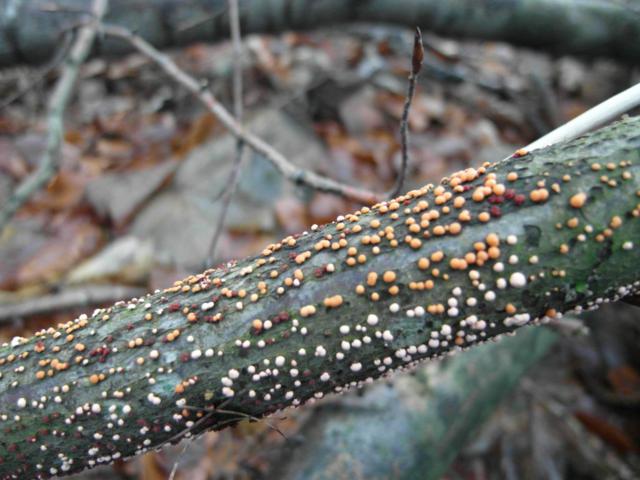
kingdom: Fungi
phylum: Ascomycota
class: Sordariomycetes
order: Hypocreales
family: Nectriaceae
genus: Nectria
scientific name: Nectria cinnabarina
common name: almindelig cinnobersvamp
